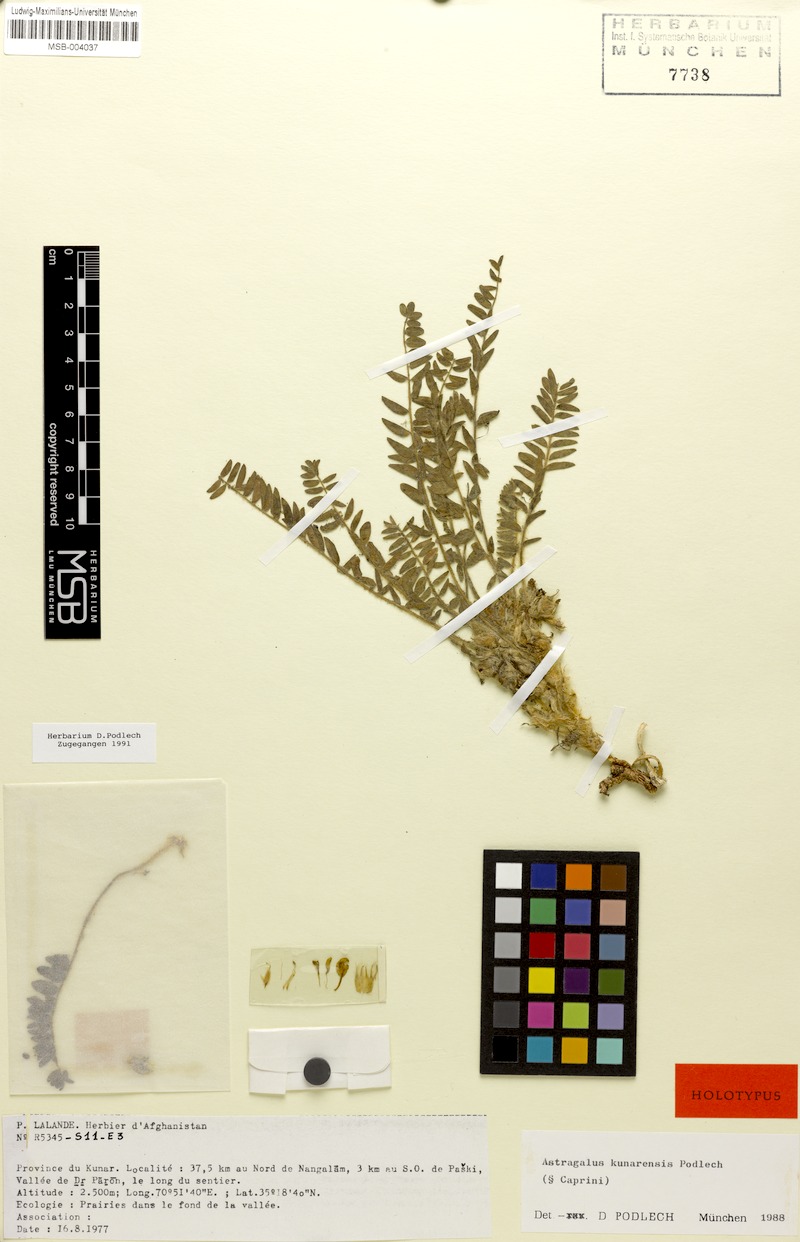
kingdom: Plantae
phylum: Tracheophyta
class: Magnoliopsida
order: Fabales
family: Fabaceae
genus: Astragalus
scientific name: Astragalus kunarensis
